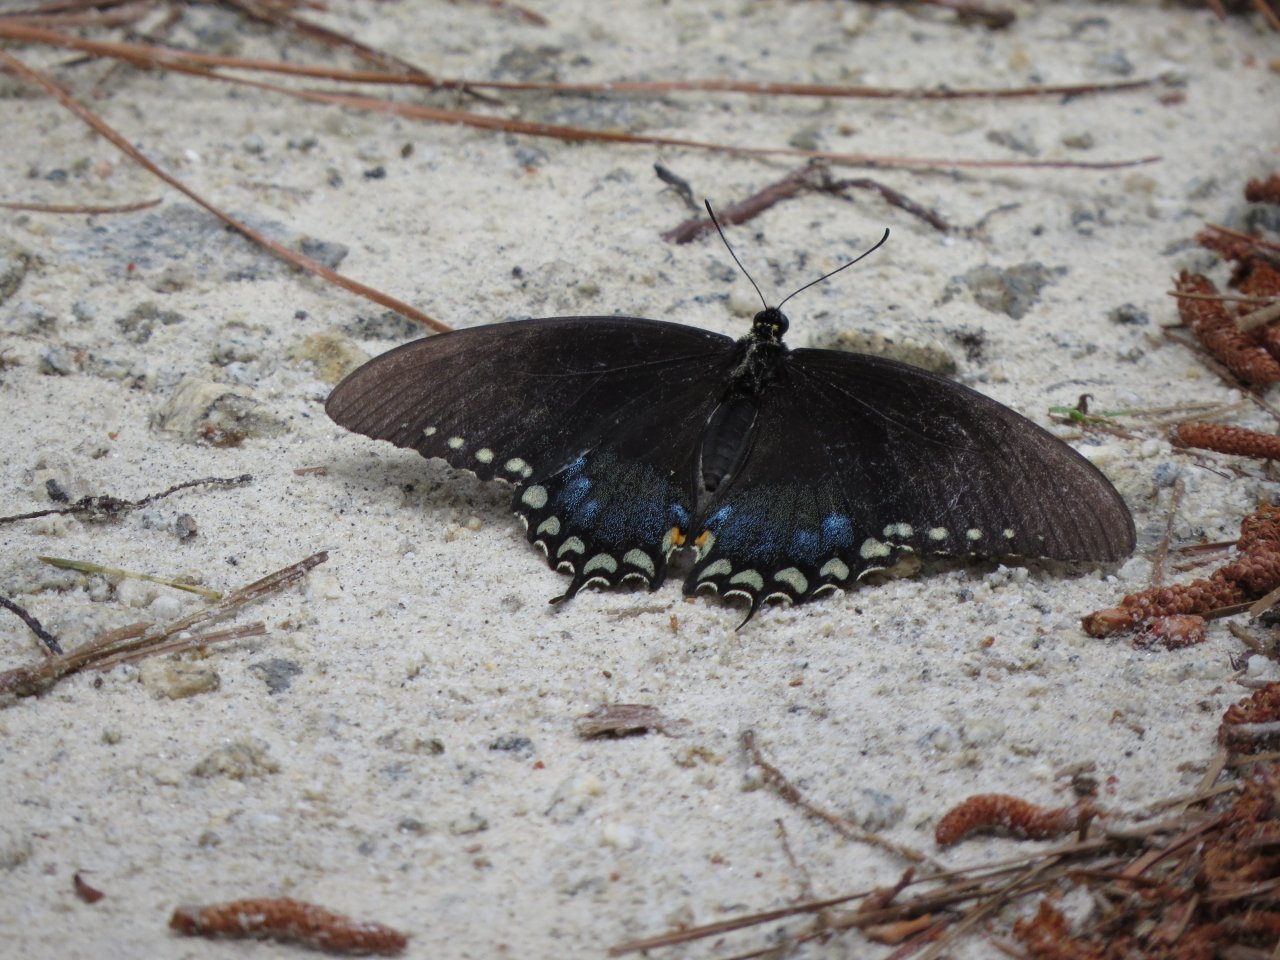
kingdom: Animalia
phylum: Arthropoda
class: Insecta
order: Lepidoptera
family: Papilionidae
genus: Pterourus
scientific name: Pterourus troilus
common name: Spicebush Swallowtail
